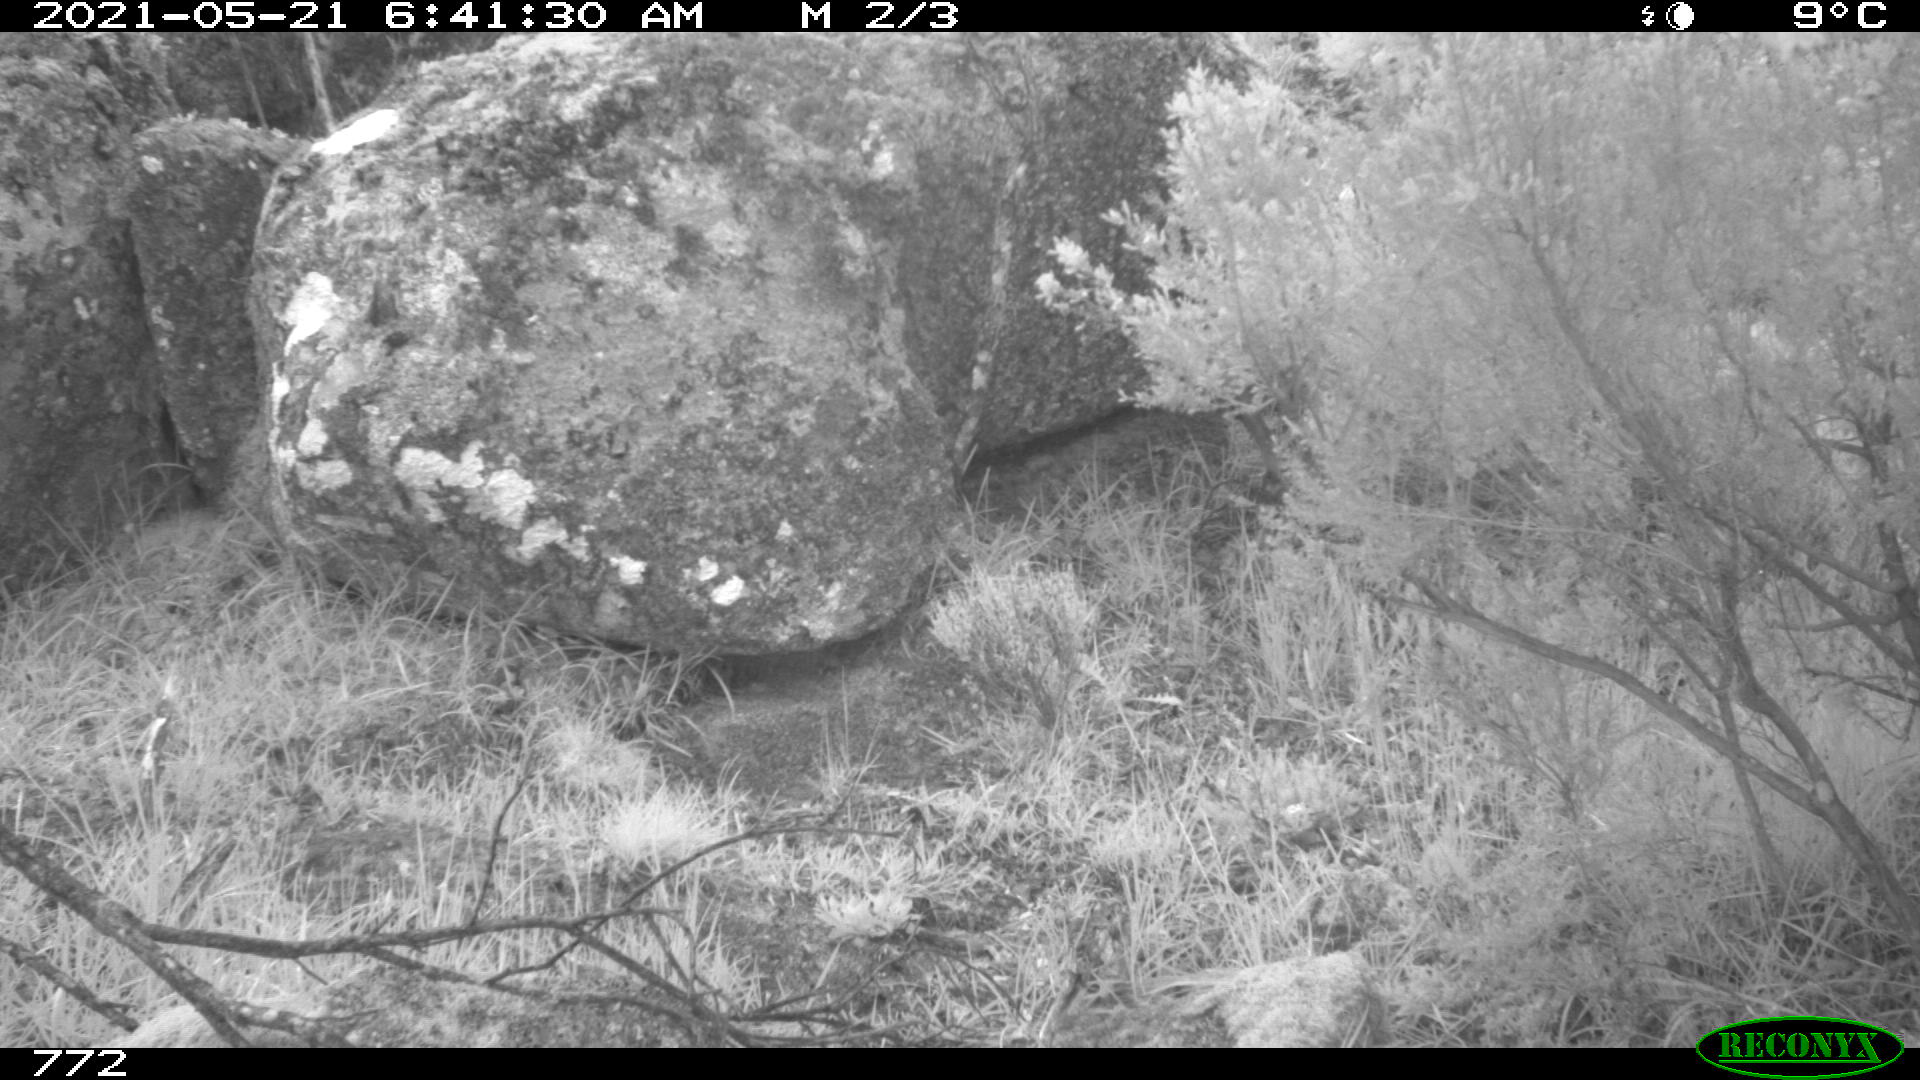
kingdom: Animalia
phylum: Chordata
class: Mammalia
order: Artiodactyla
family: Cervidae
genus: Capreolus
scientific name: Capreolus capreolus
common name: Western roe deer
